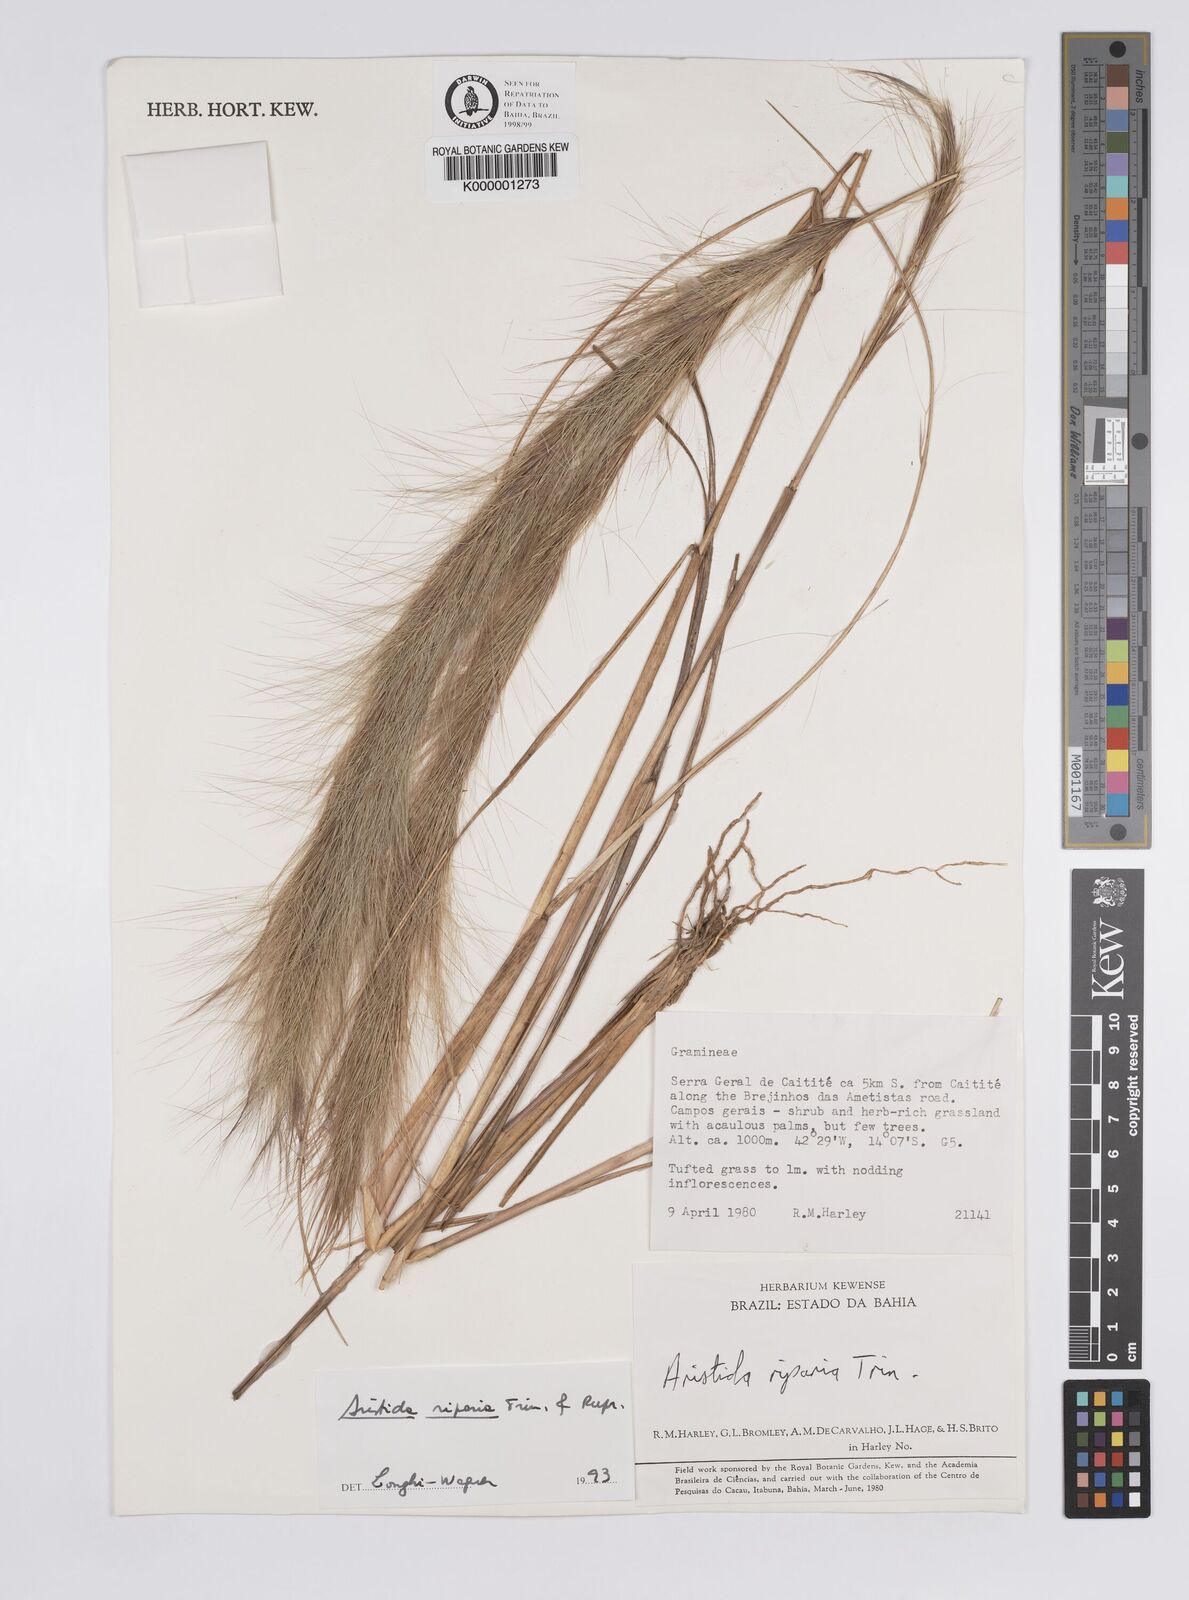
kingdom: Plantae
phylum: Tracheophyta
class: Liliopsida
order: Poales
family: Poaceae
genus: Aristida
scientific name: Aristida riparia
